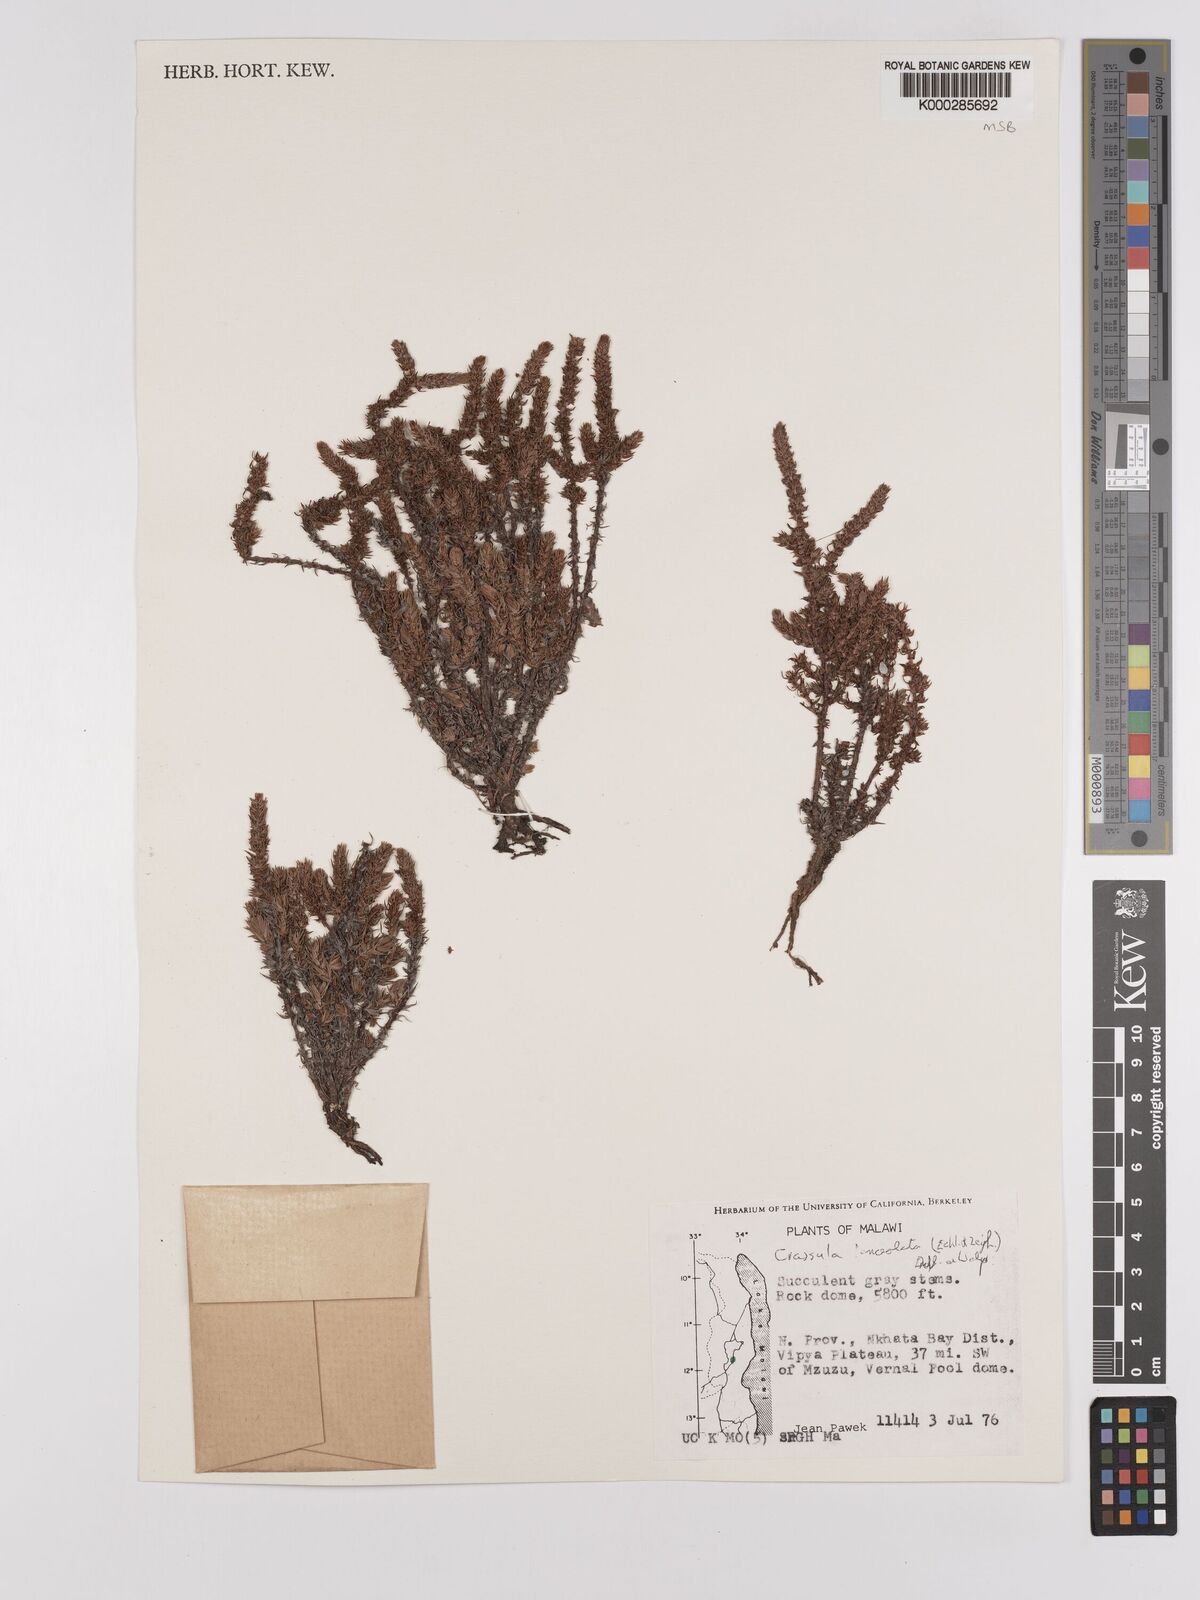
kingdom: Plantae
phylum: Tracheophyta
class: Magnoliopsida
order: Saxifragales
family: Crassulaceae
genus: Crassula
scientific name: Crassula lanceolata
